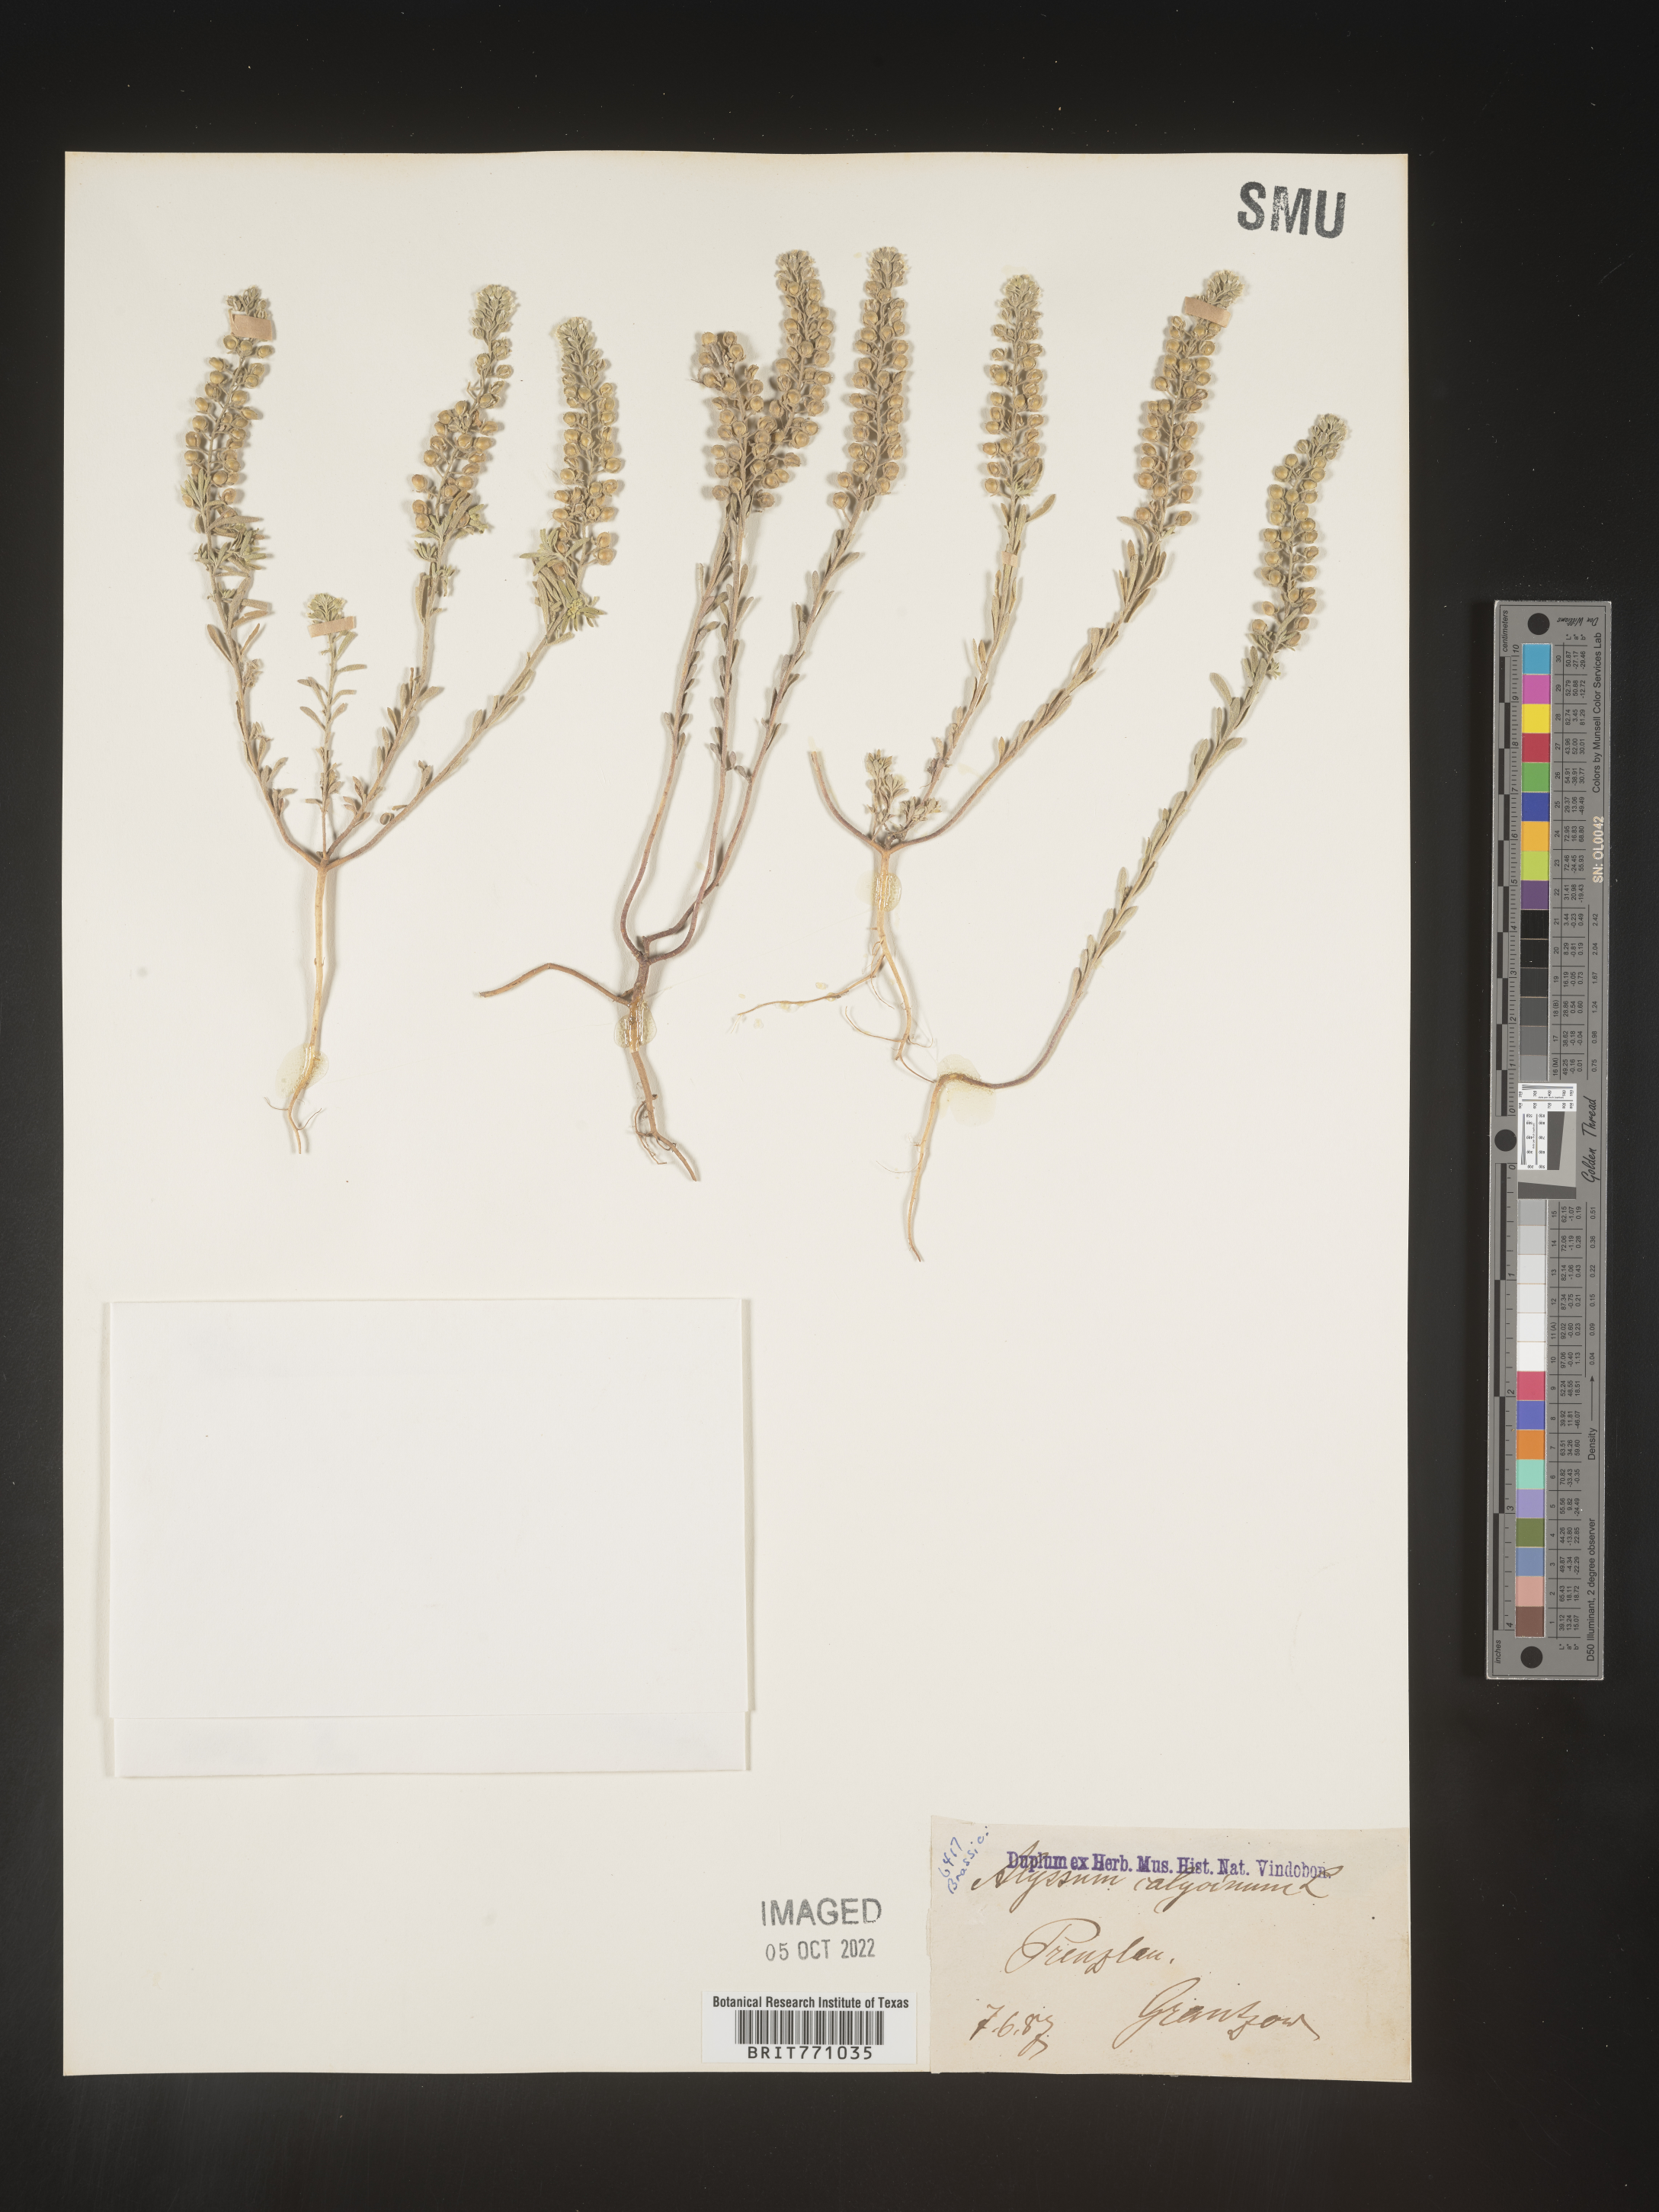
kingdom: Plantae
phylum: Tracheophyta
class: Magnoliopsida
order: Brassicales
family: Brassicaceae
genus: Alyssum
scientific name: Alyssum
